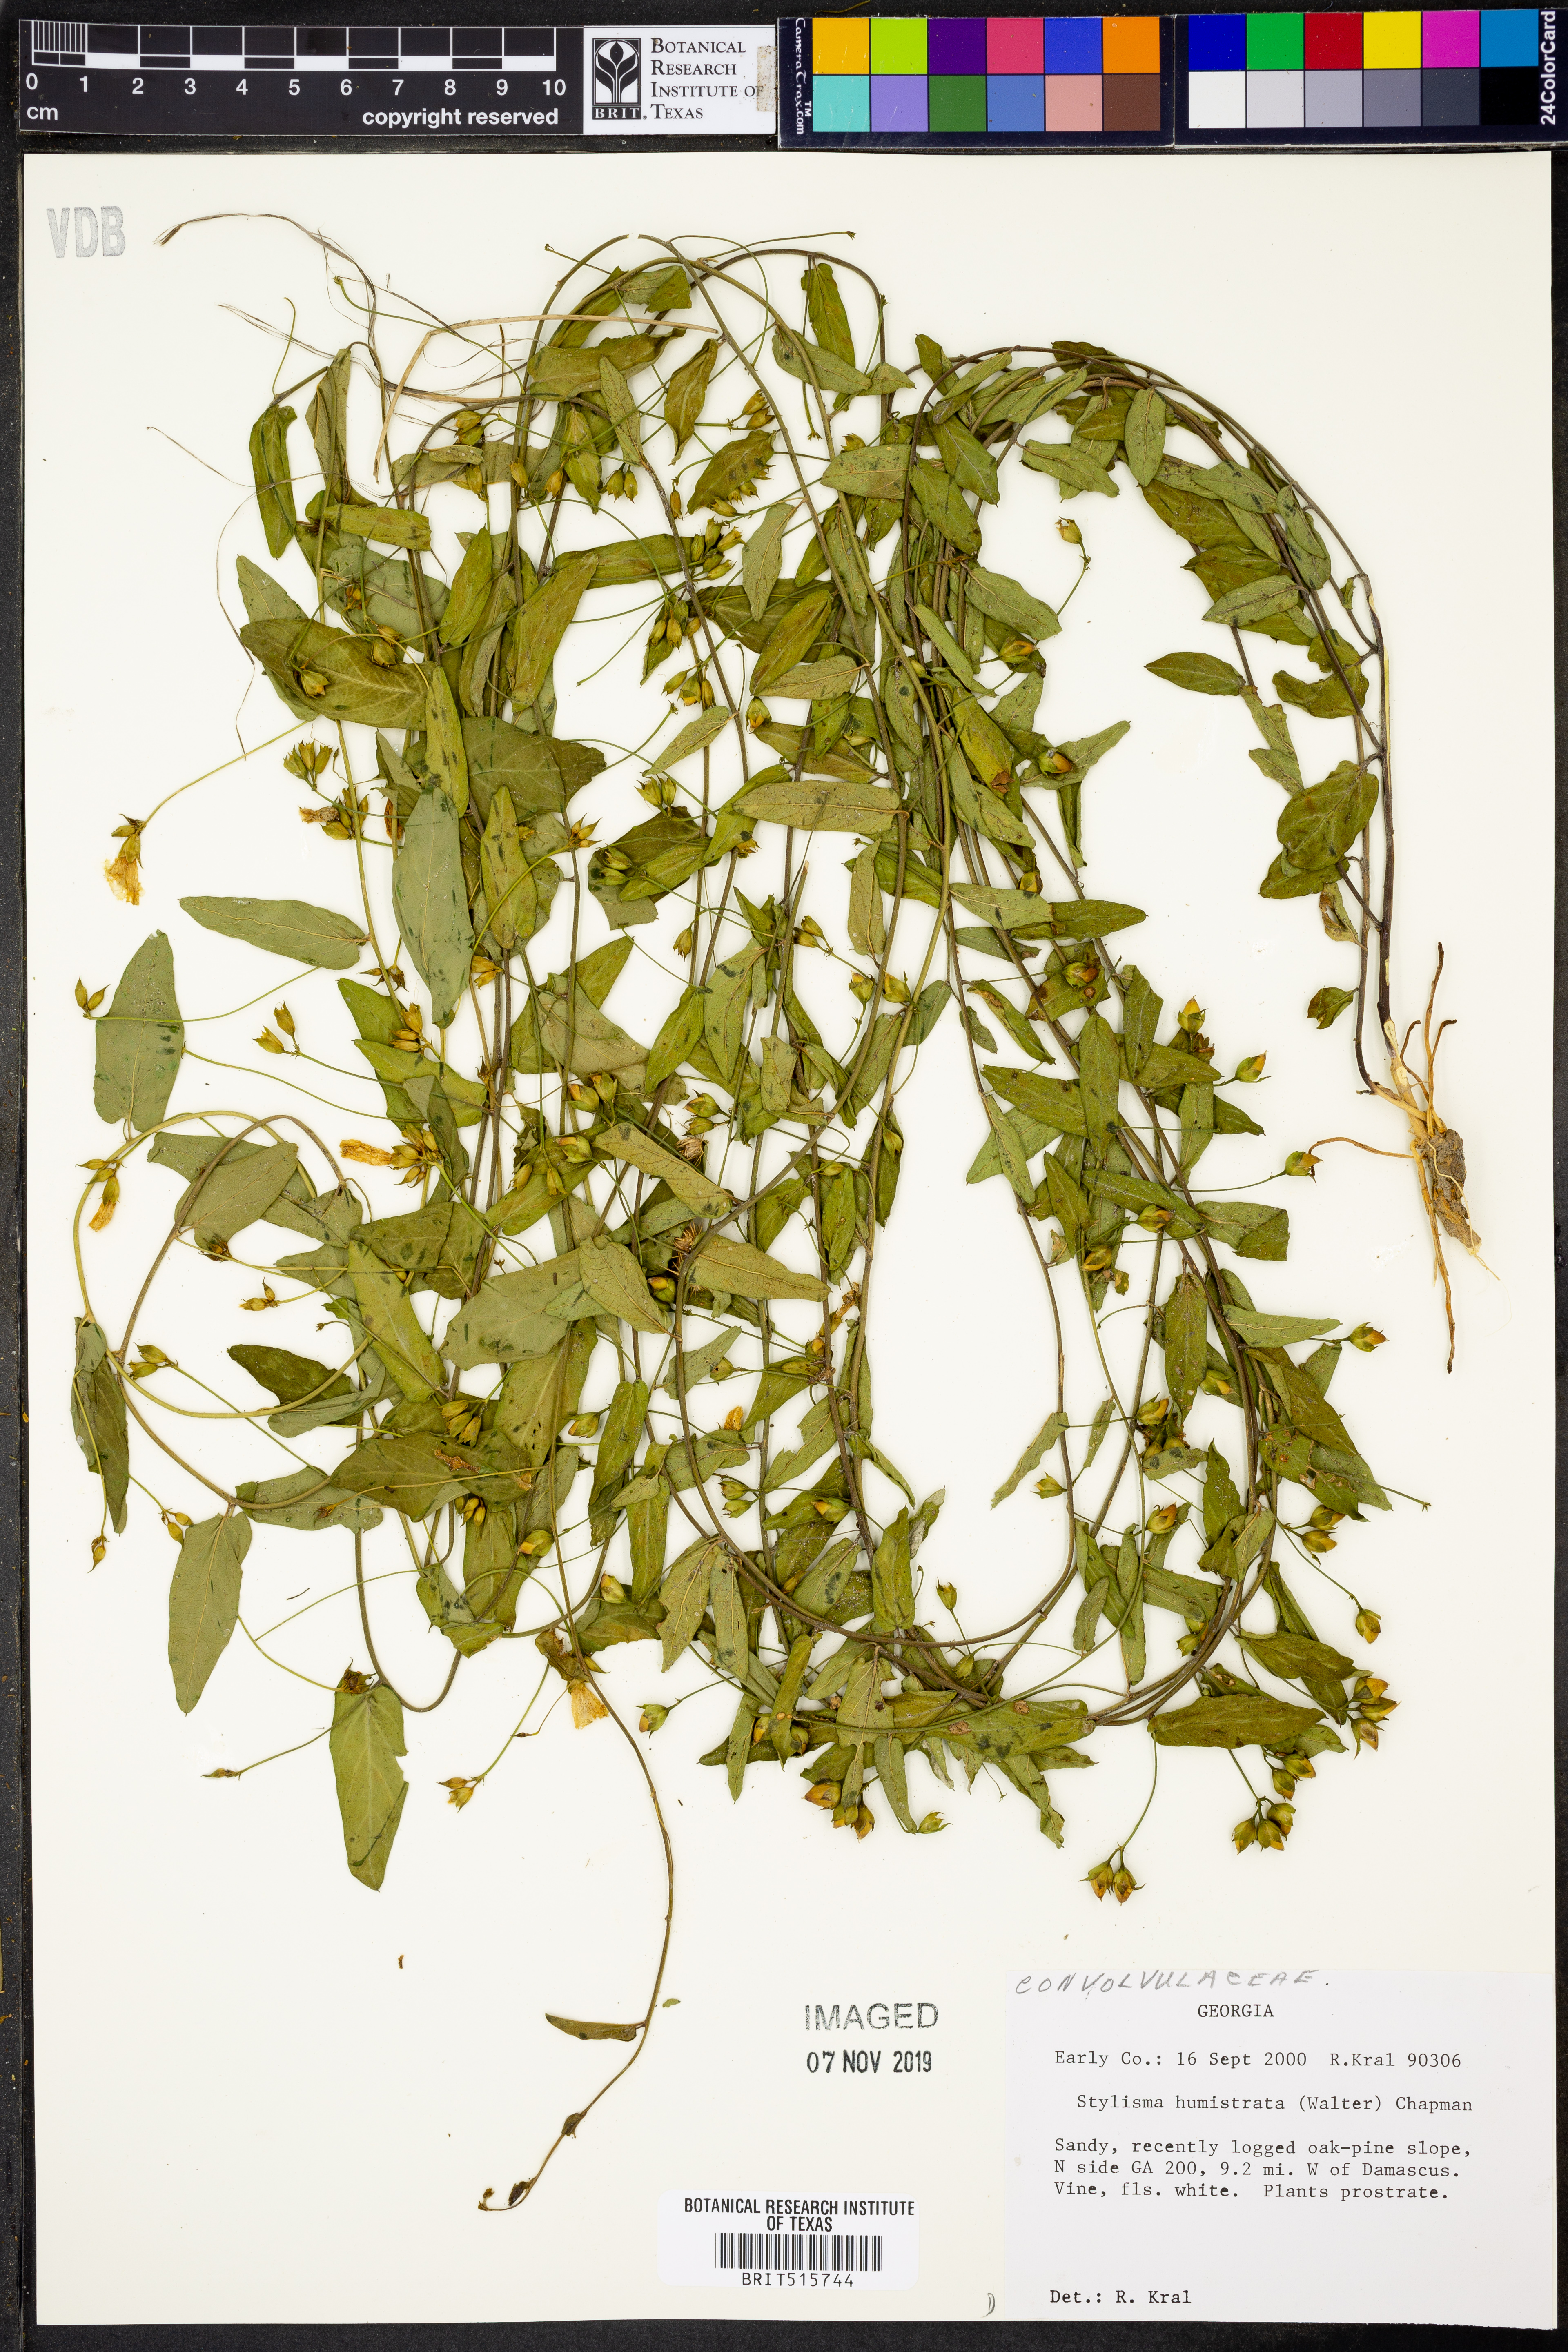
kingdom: Plantae
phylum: Tracheophyta
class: Magnoliopsida
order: Solanales
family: Convolvulaceae
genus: Stylisma
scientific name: Stylisma humistrata
